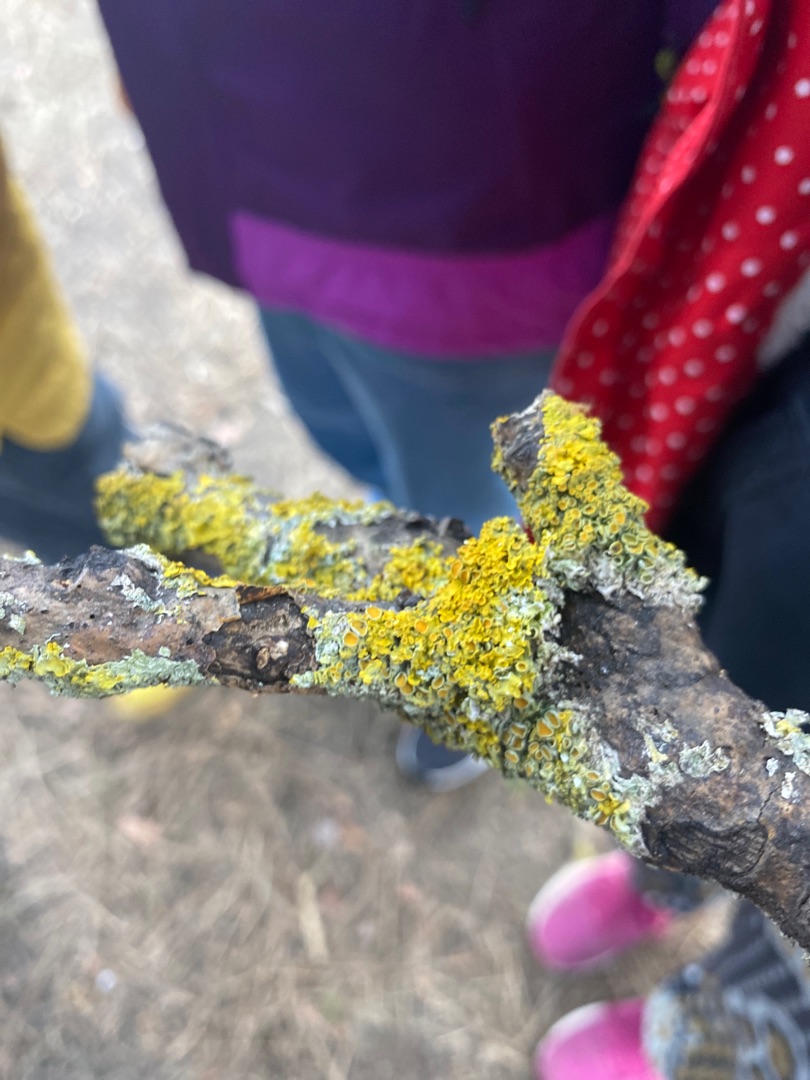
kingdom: Fungi
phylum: Ascomycota
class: Lecanoromycetes
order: Teloschistales
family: Teloschistaceae
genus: Xanthoria
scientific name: Xanthoria parietina
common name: Almindelig væggelav
